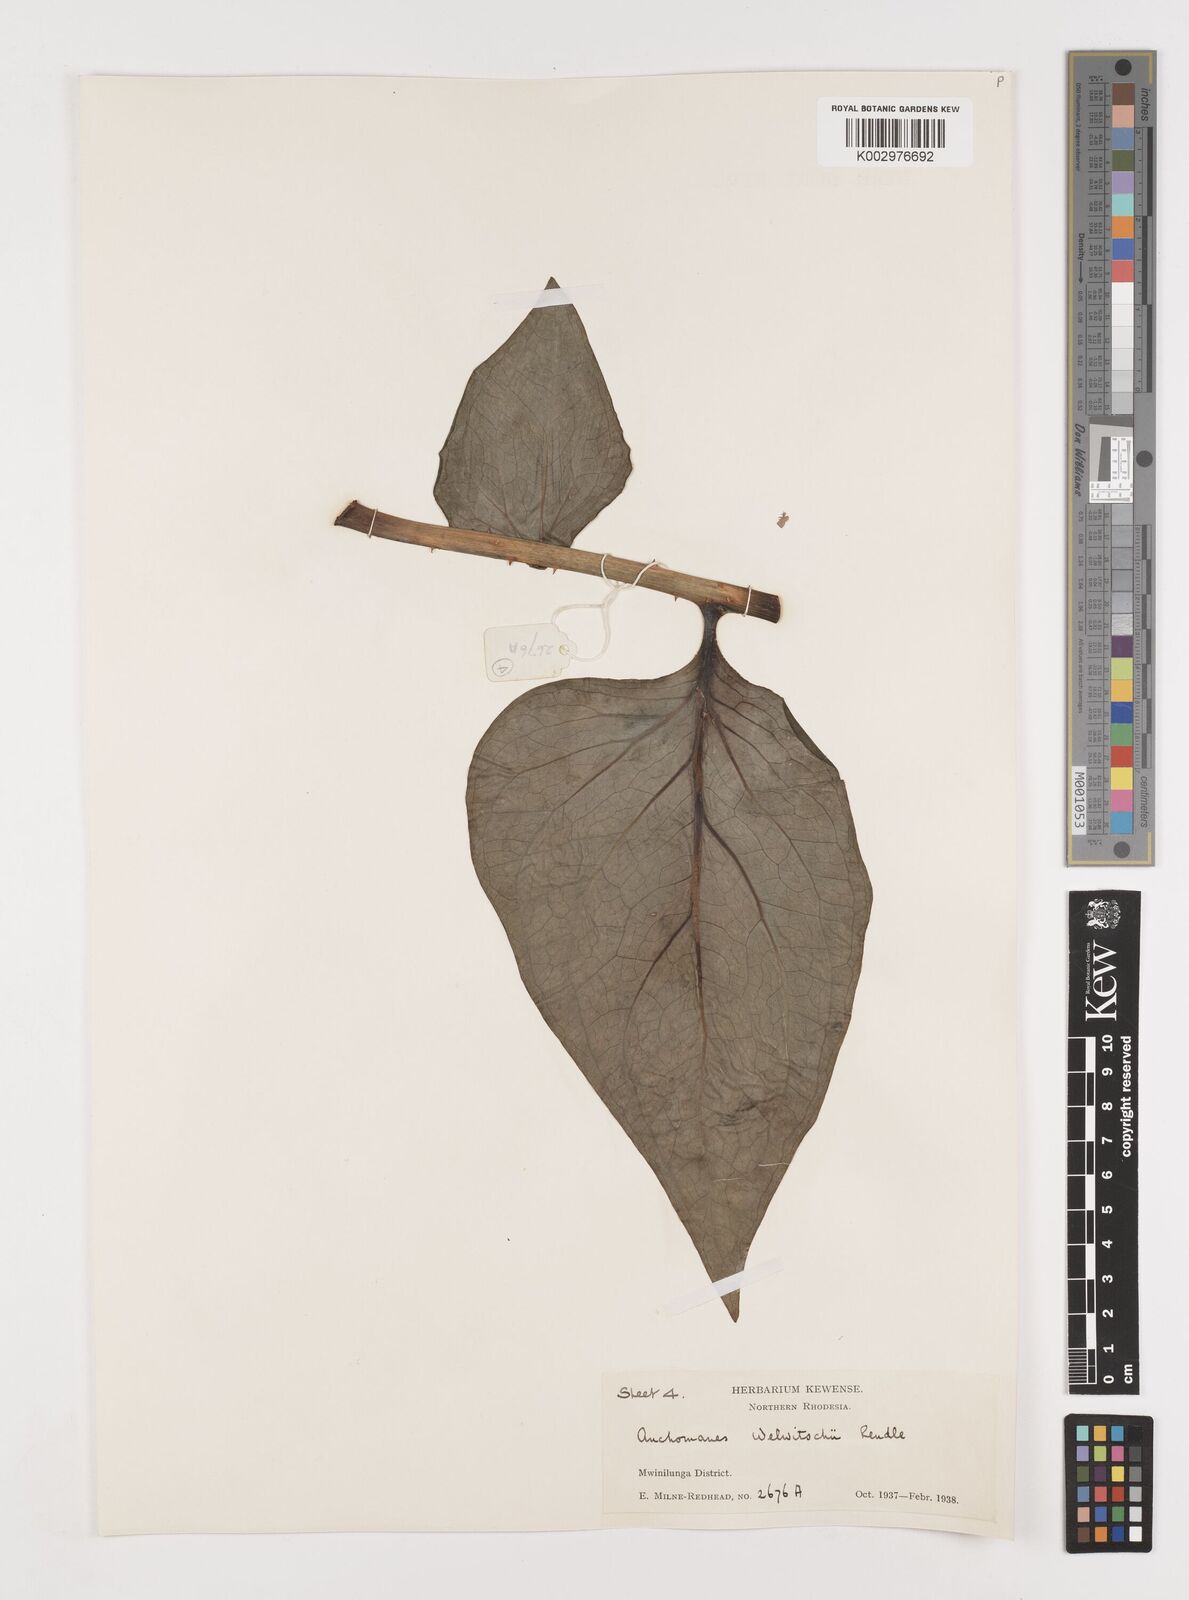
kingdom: Plantae
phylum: Tracheophyta
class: Liliopsida
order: Alismatales
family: Araceae
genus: Anchomanes
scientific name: Anchomanes difformis
